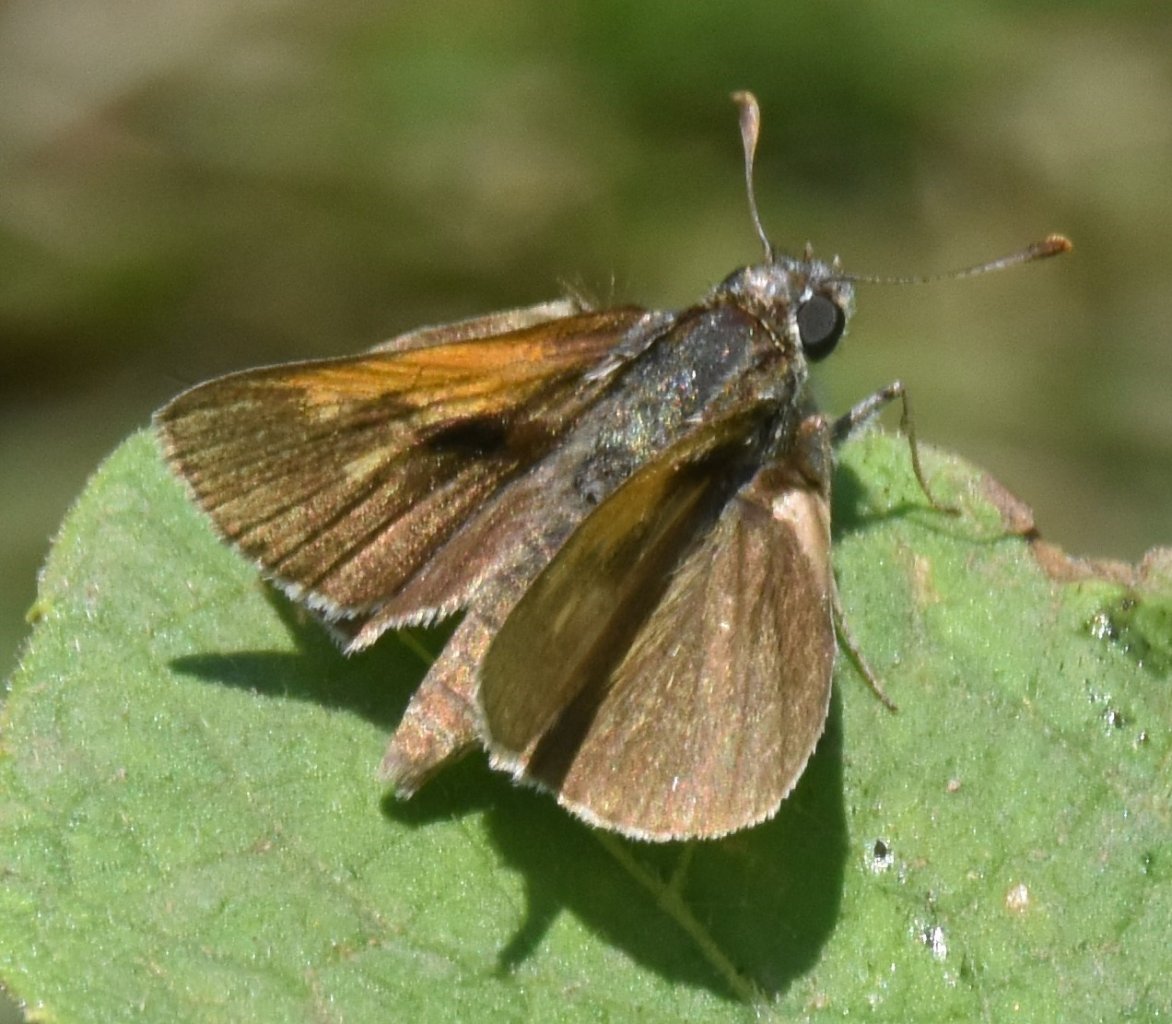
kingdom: Animalia
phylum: Arthropoda
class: Insecta
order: Lepidoptera
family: Hesperiidae
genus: Polites
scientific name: Polites themistocles
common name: Tawny-edged Skipper
